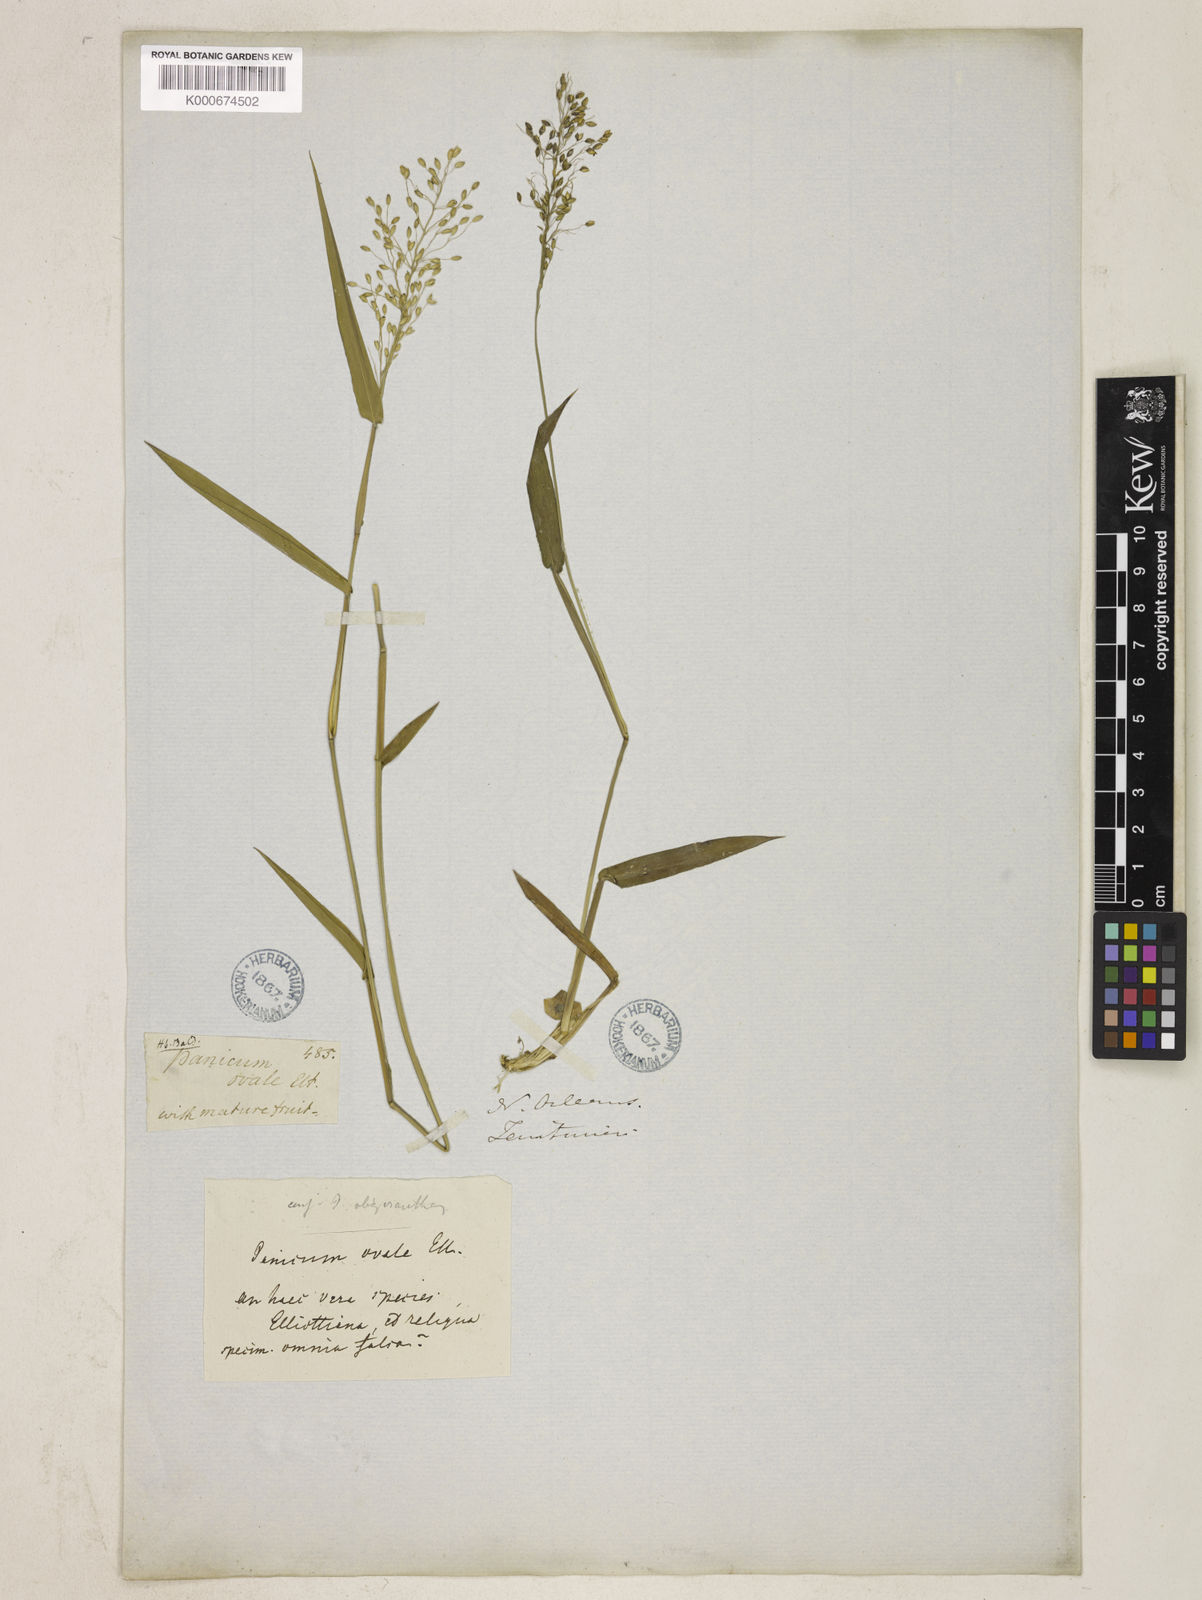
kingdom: Plantae
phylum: Tracheophyta
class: Liliopsida
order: Poales
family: Poaceae
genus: Dichanthelium
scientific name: Dichanthelium ovale
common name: Stiff-leaved panicgrass
